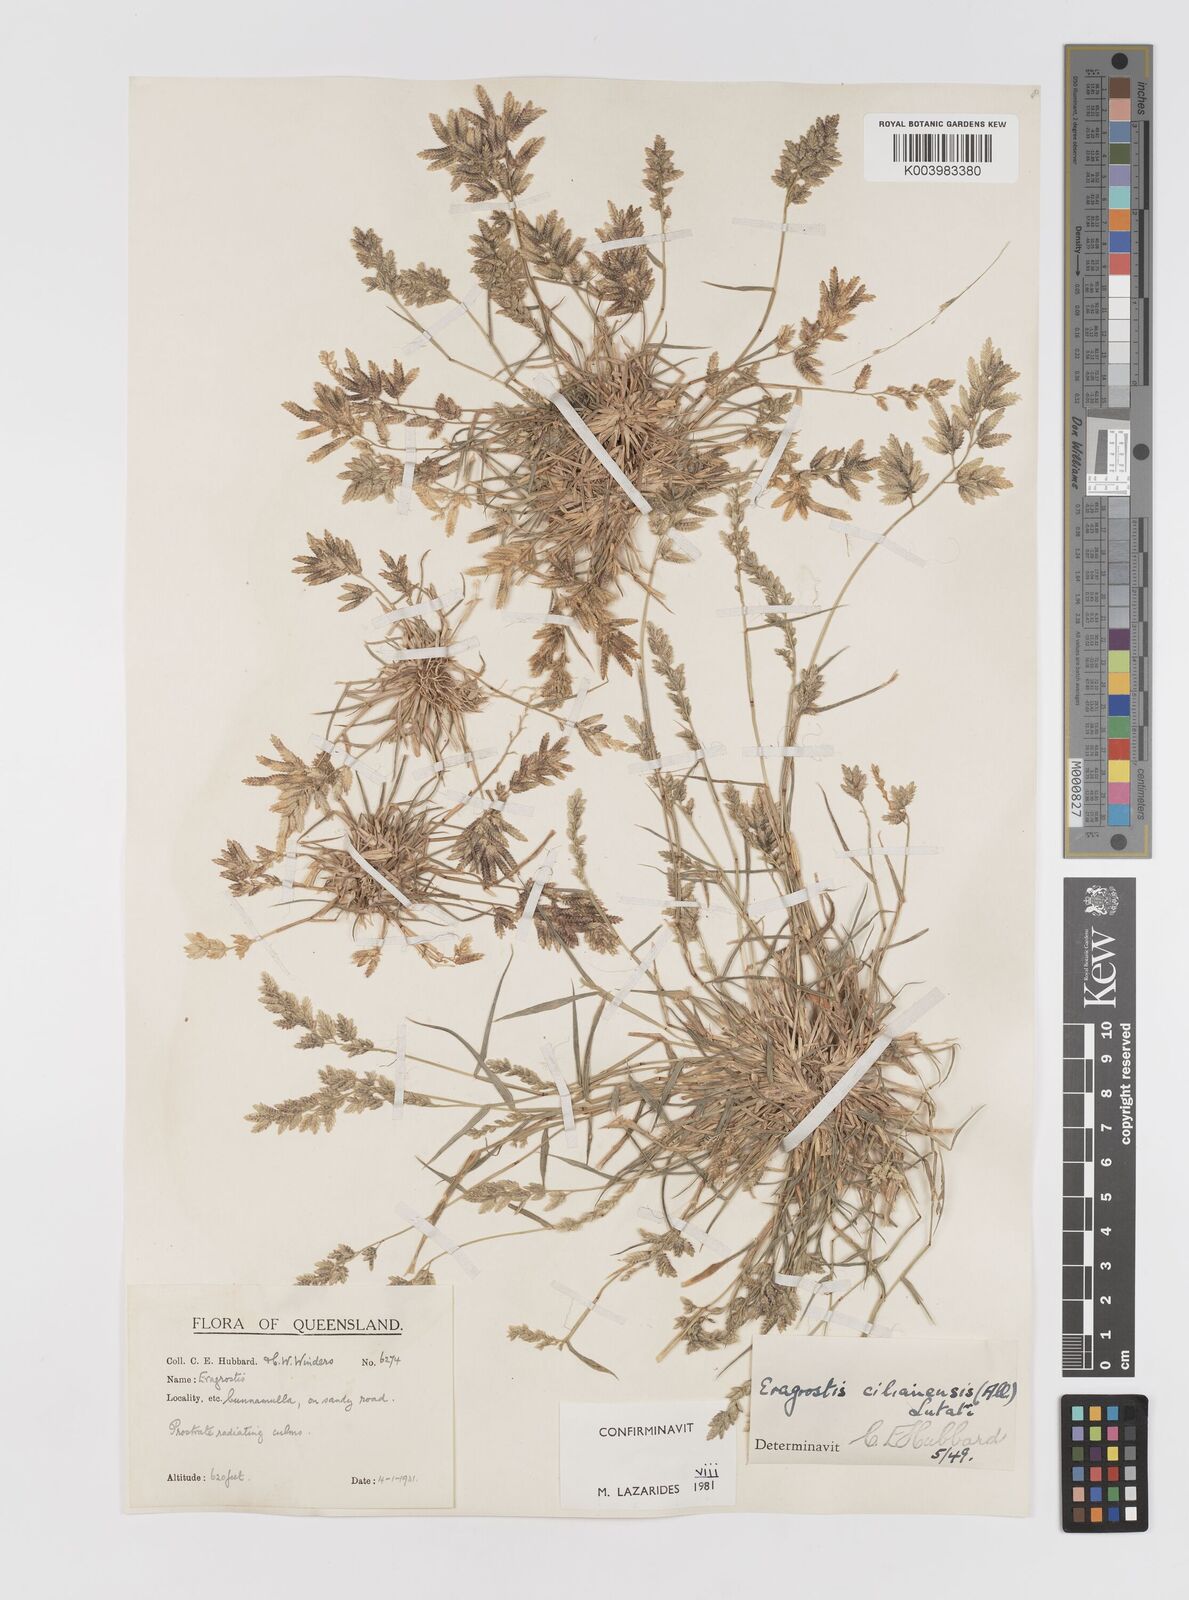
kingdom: Plantae
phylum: Tracheophyta
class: Liliopsida
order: Poales
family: Poaceae
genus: Eragrostis
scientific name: Eragrostis cilianensis
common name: Stinkgrass
